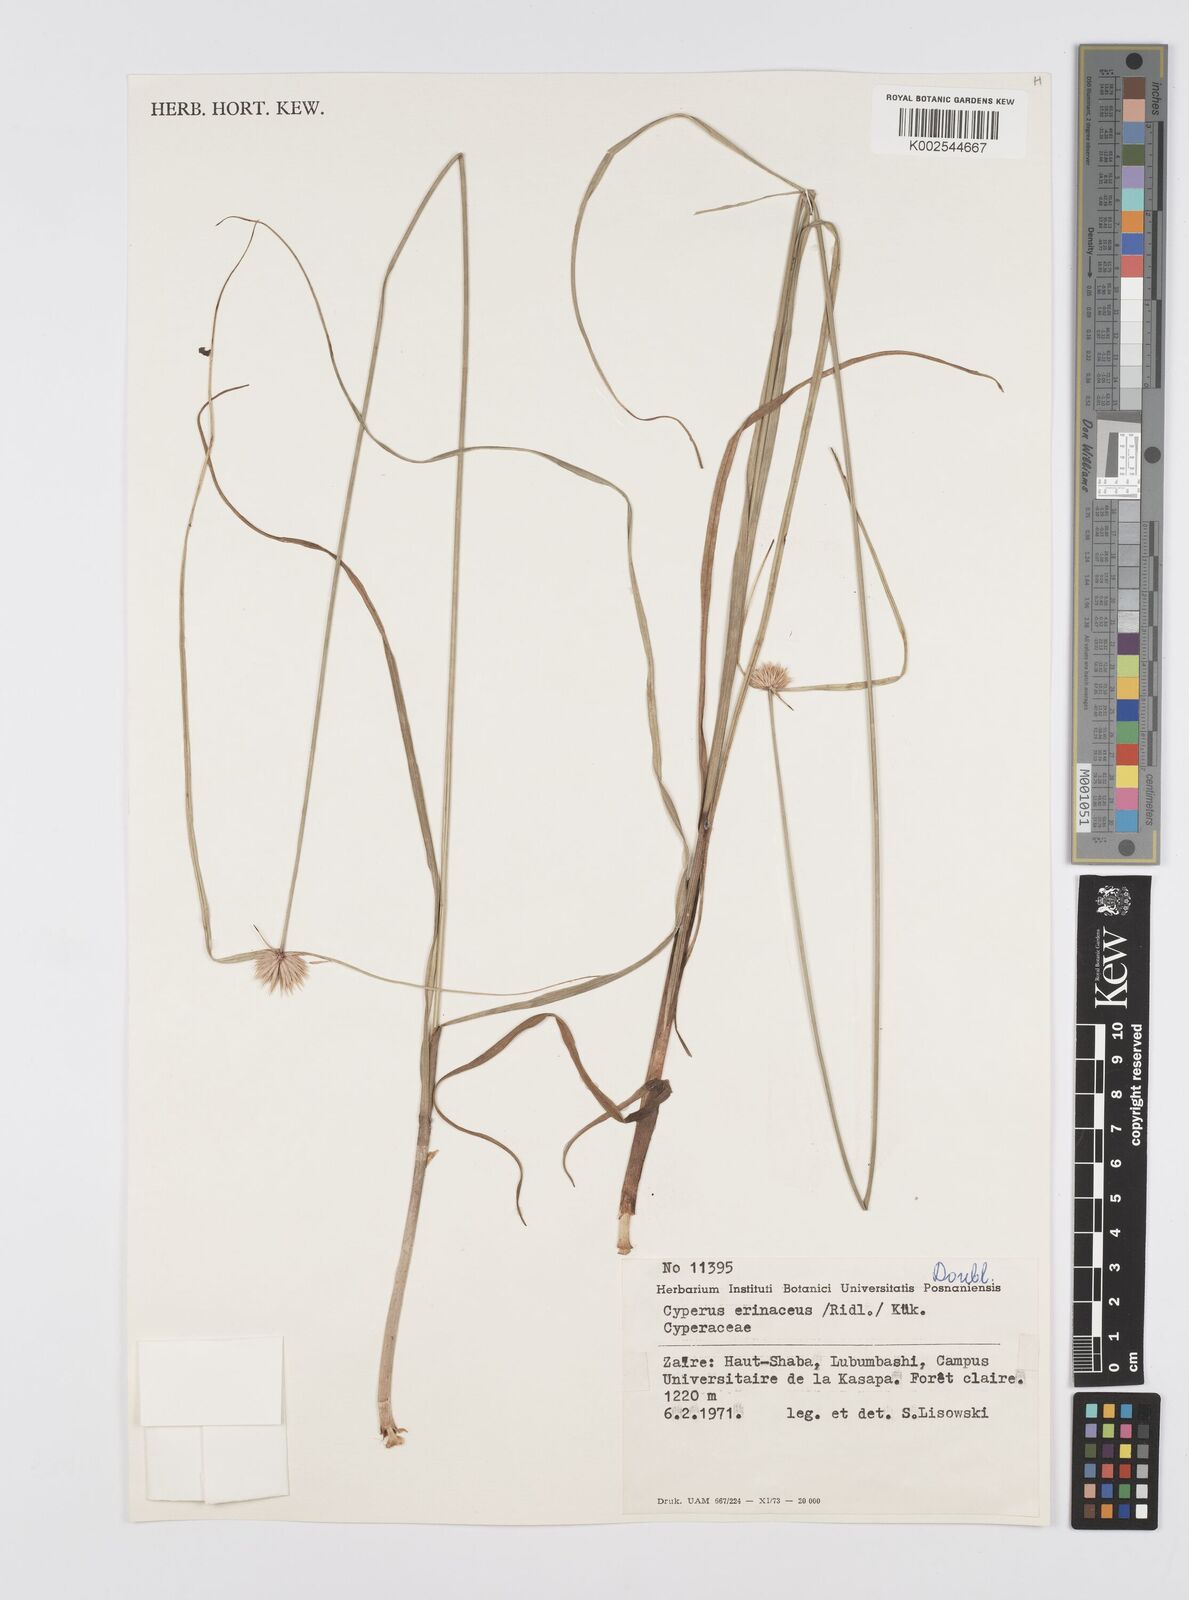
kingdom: Plantae
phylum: Tracheophyta
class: Liliopsida
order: Poales
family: Cyperaceae
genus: Cyperus
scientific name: Cyperus erinaceus
